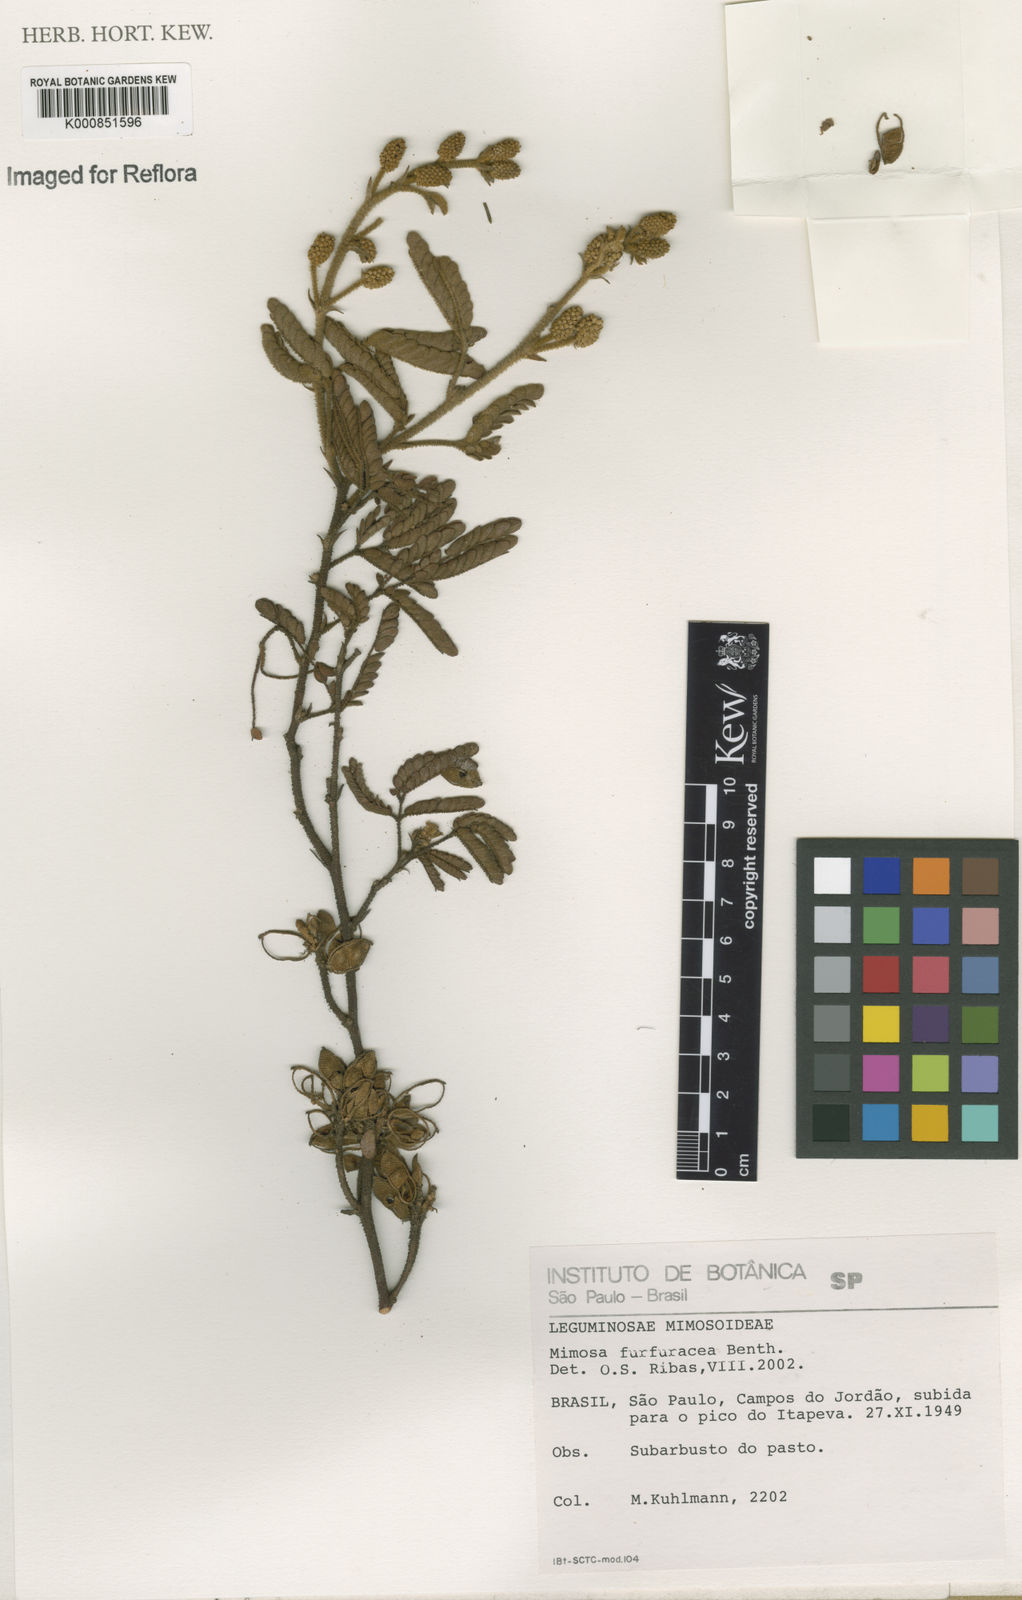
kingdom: Plantae
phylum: Tracheophyta
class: Magnoliopsida
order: Fabales
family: Fabaceae
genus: Mimosa
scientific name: Mimosa furfuracea
